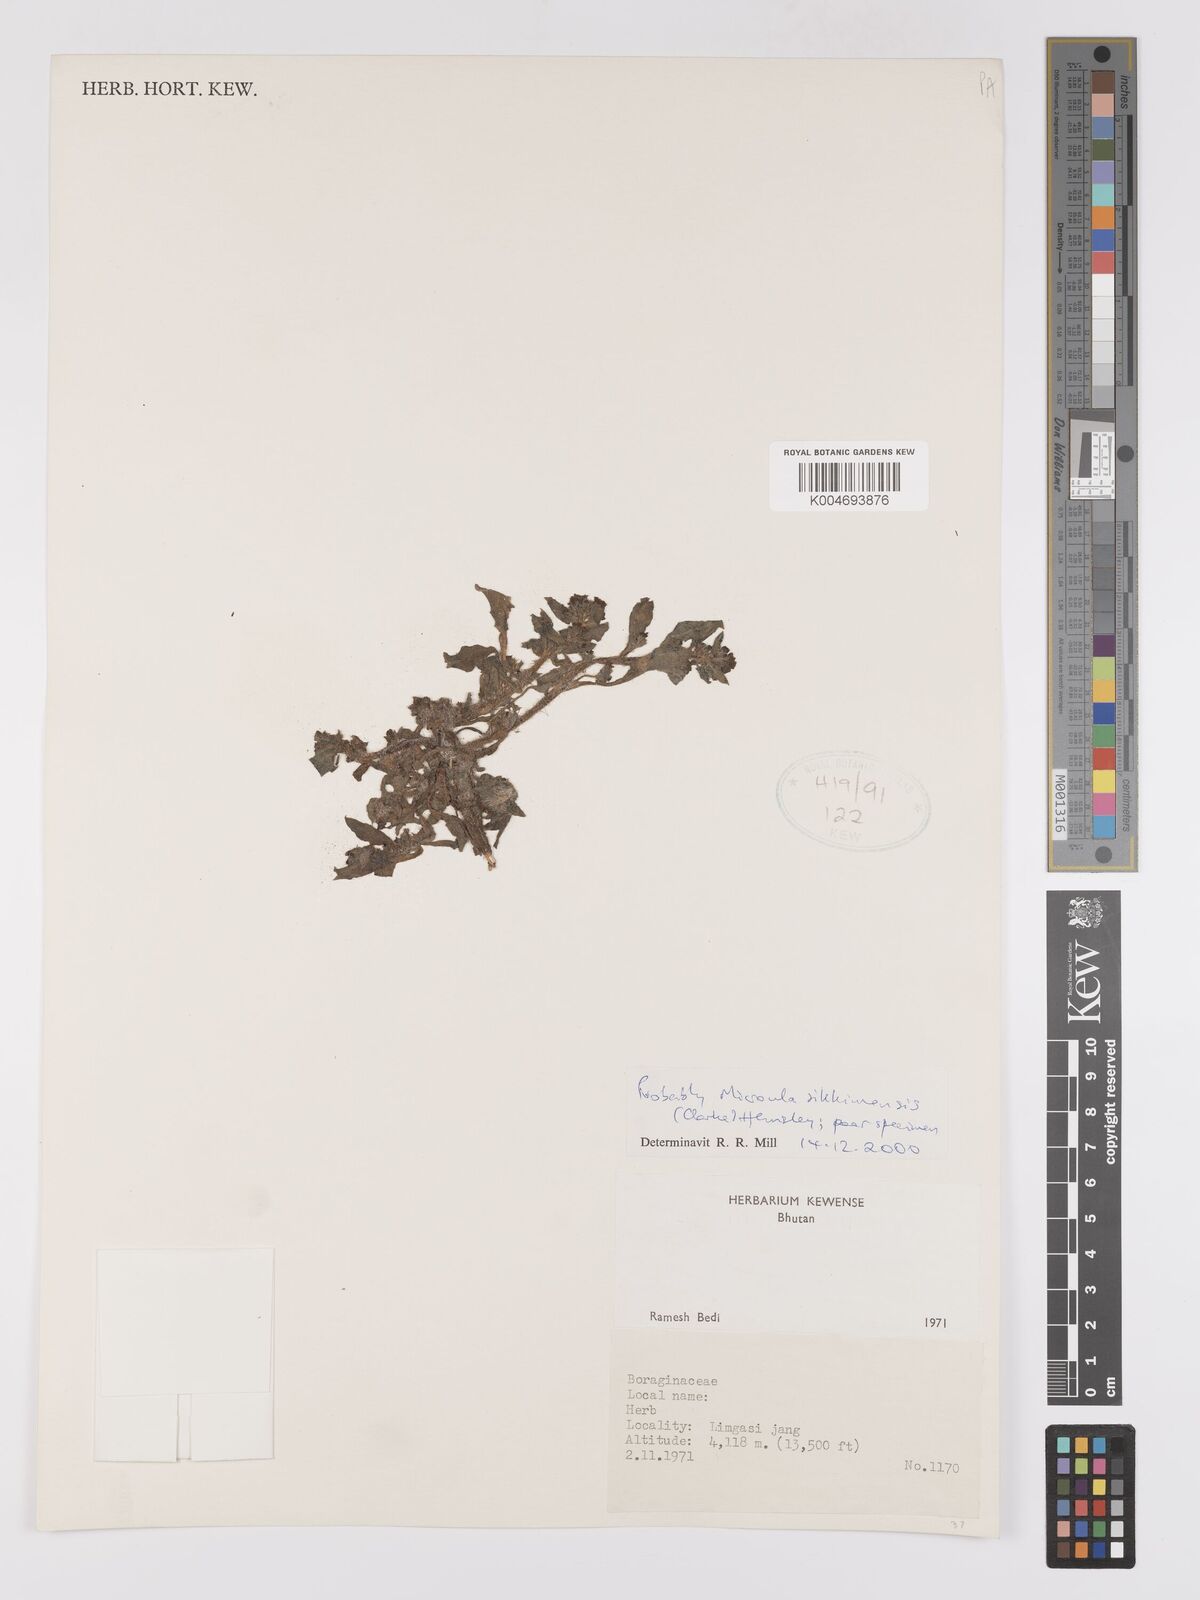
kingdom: Plantae
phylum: Tracheophyta
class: Magnoliopsida
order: Boraginales
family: Boraginaceae
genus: Microula
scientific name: Microula sikkimensis
